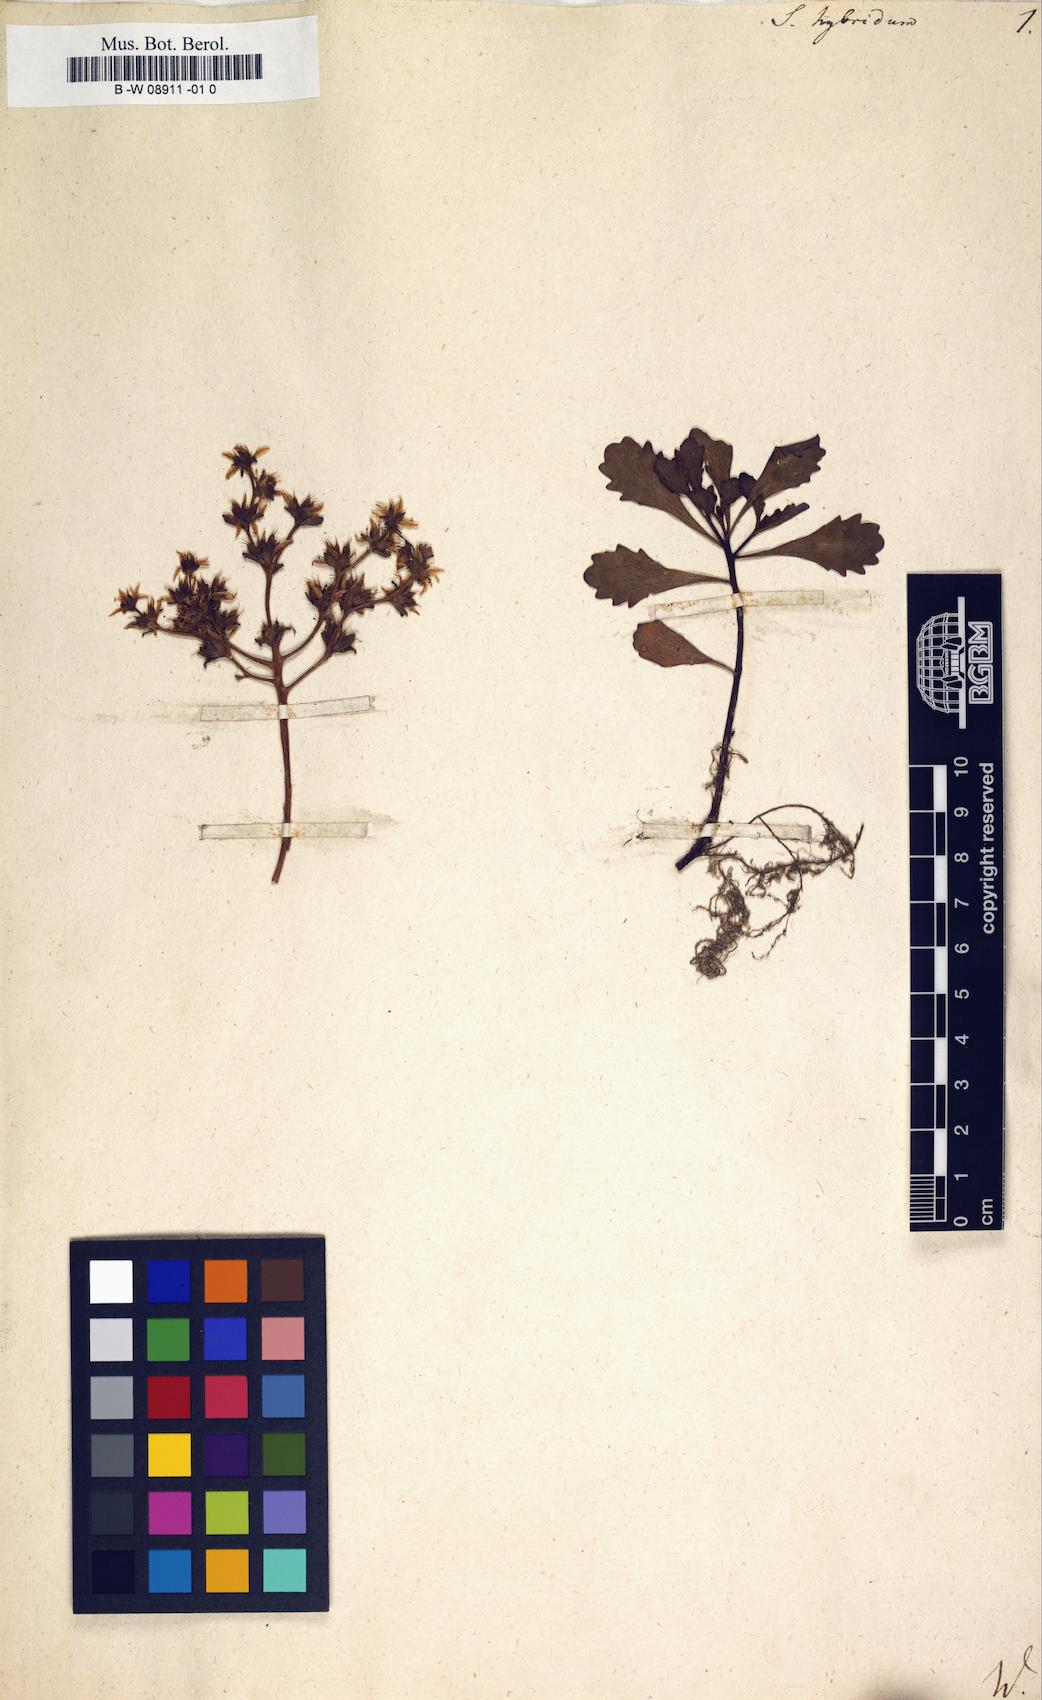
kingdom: Plantae
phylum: Tracheophyta
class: Magnoliopsida
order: Saxifragales
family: Crassulaceae
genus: Phedimus
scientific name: Phedimus
